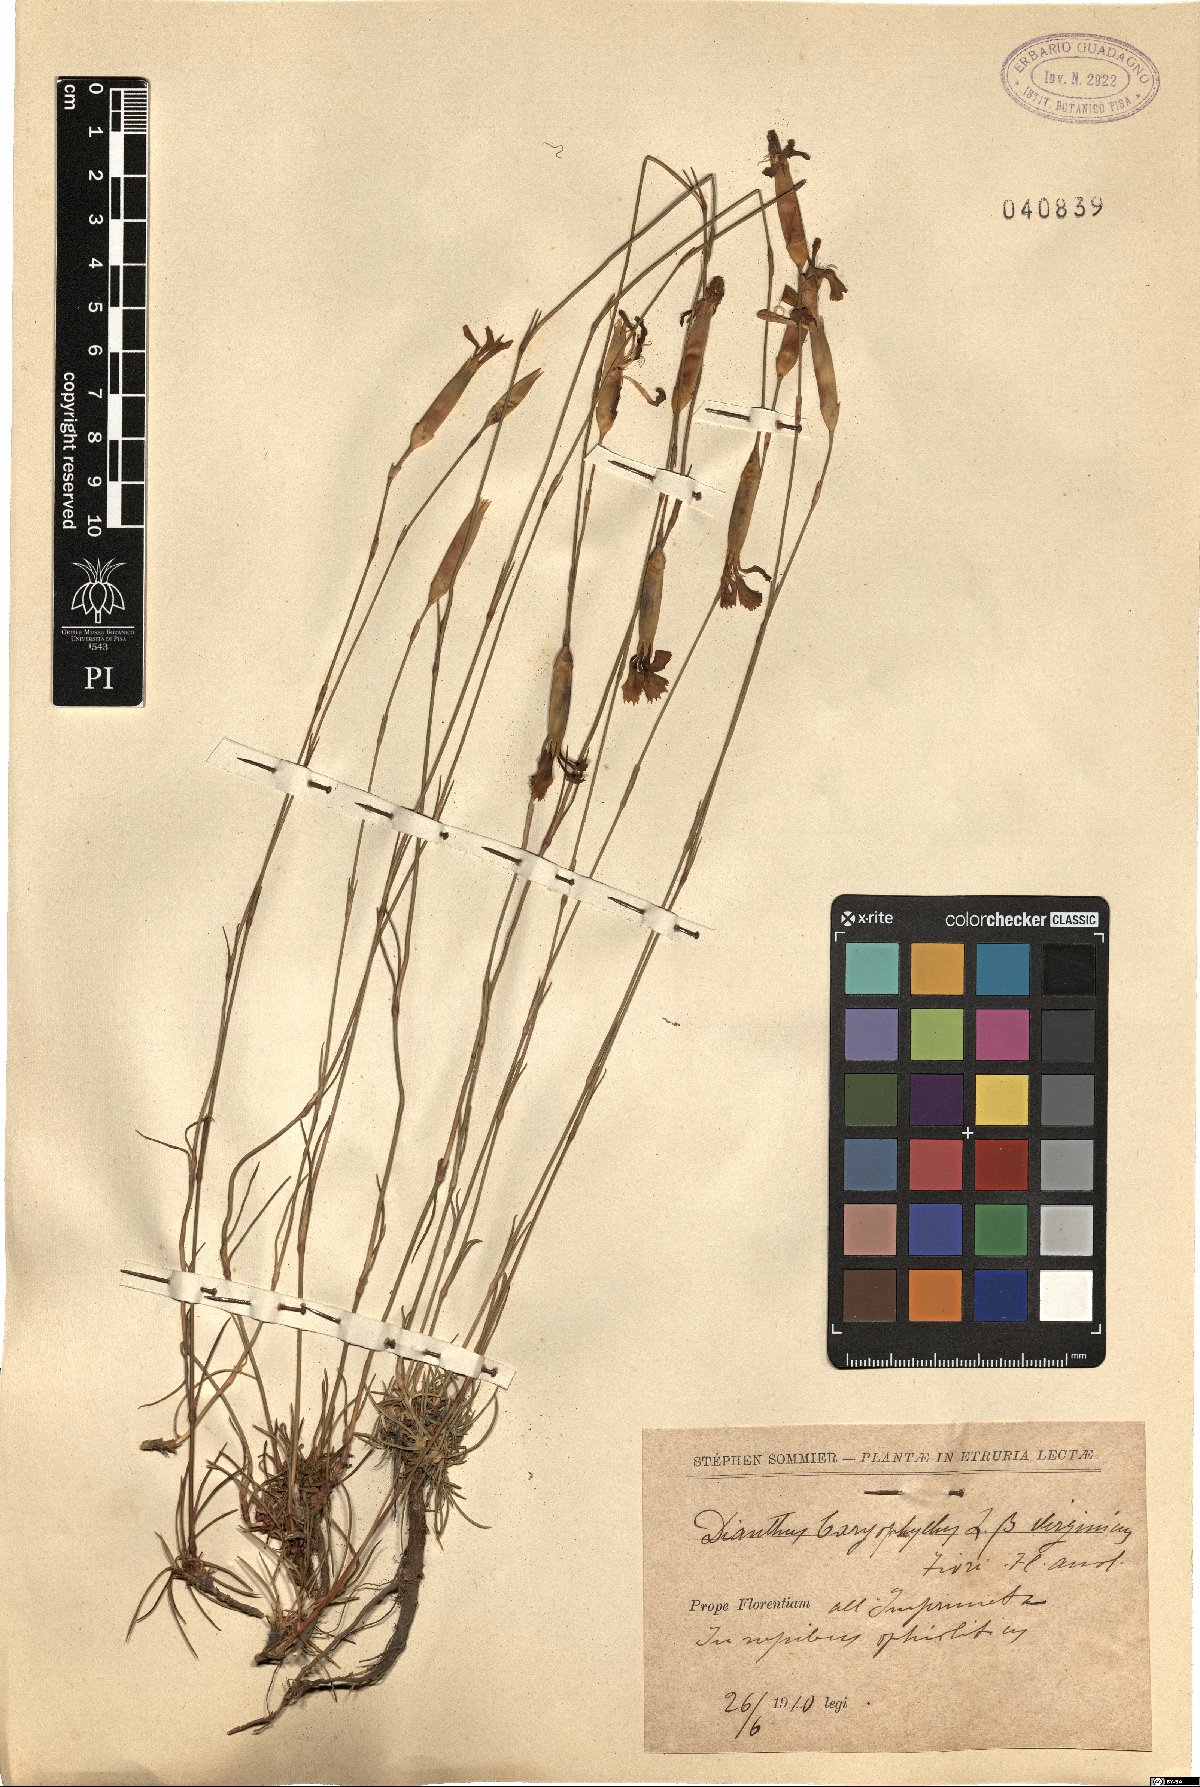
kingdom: Plantae
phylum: Tracheophyta
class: Magnoliopsida
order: Caryophyllales
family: Caryophyllaceae
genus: Dianthus
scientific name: Dianthus caryophyllus
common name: Clove pink
